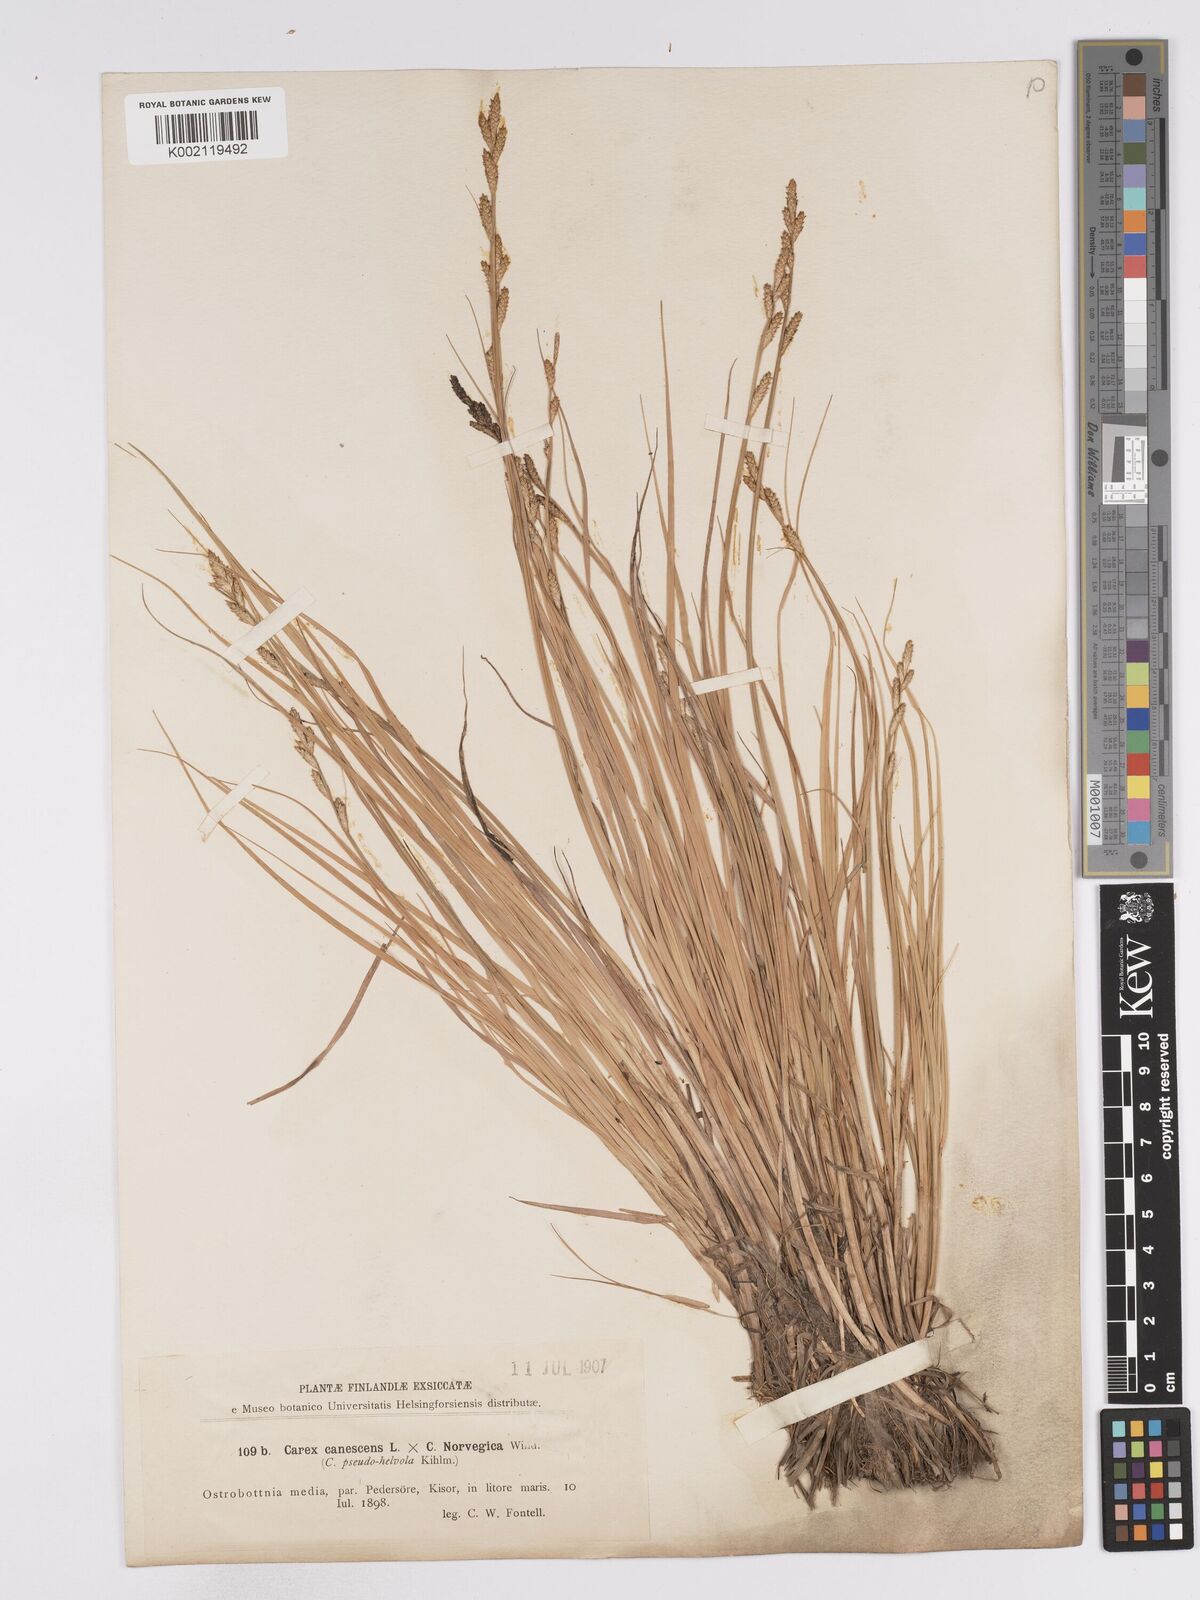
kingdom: Plantae
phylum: Tracheophyta
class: Liliopsida
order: Poales
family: Cyperaceae
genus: Carex
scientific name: Carex mackenziei
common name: Mackenzie's sedge
